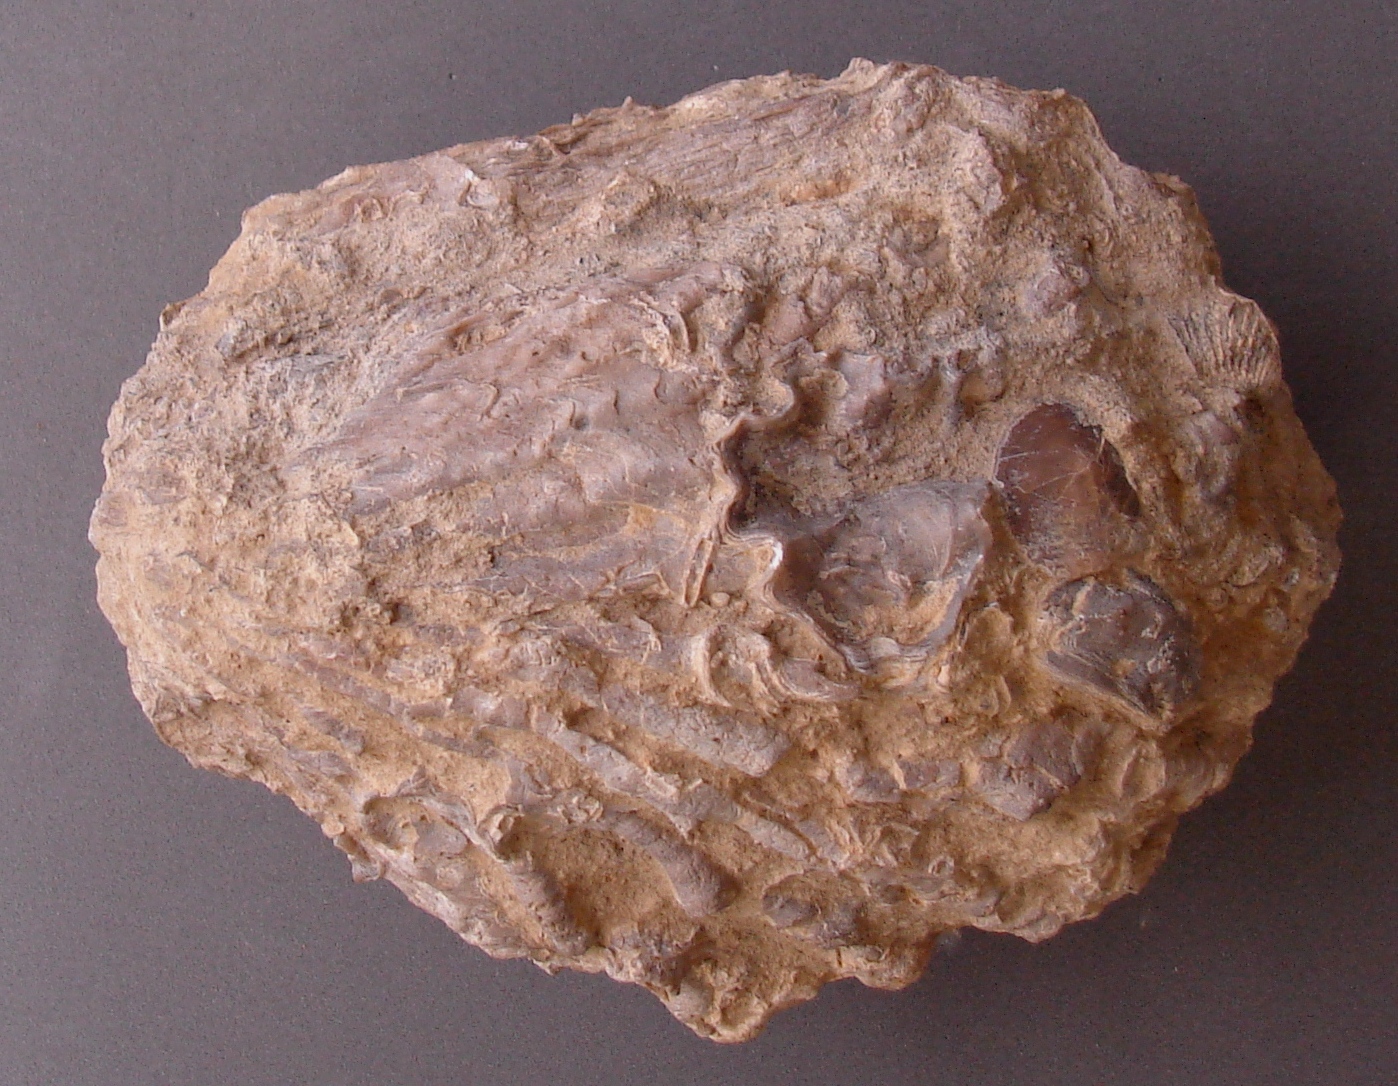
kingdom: Animalia
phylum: Mollusca
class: Bivalvia
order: Ostreida
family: Ostreidae
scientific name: Ostreidae
